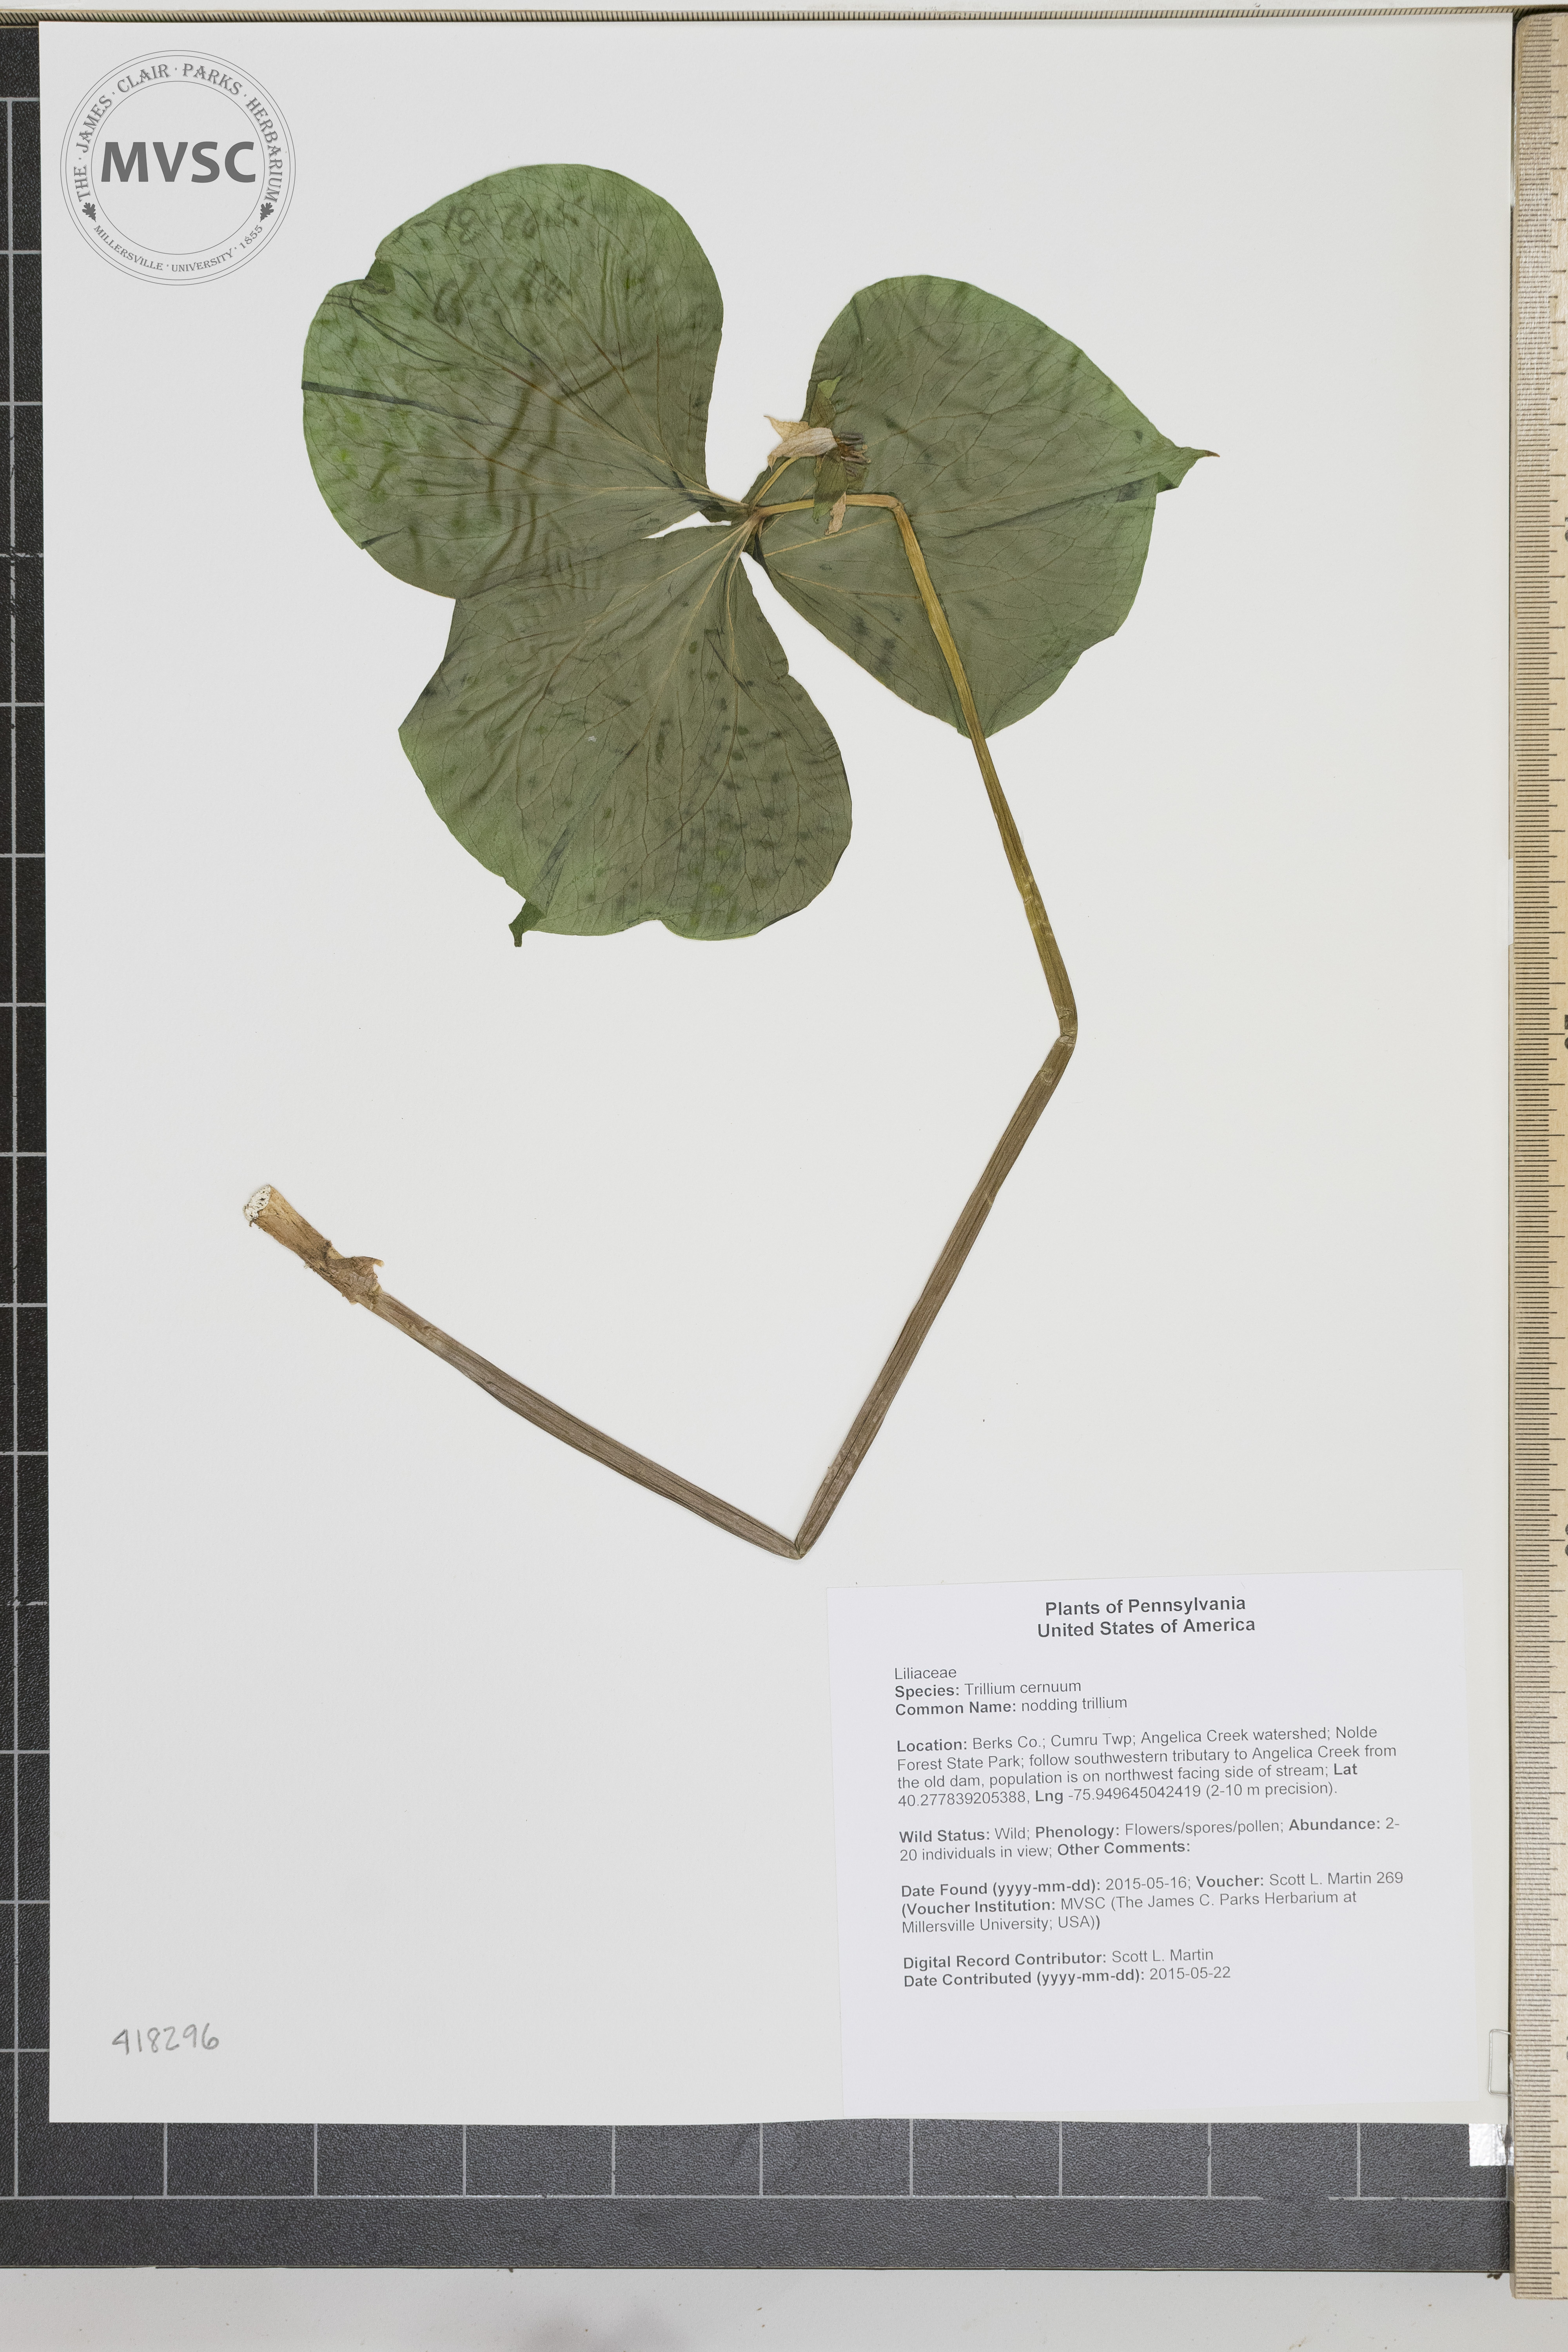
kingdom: Plantae
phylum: Tracheophyta
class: Liliopsida
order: Liliales
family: Melanthiaceae
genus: Trillium
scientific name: Trillium cernuum
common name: nodding trillium
